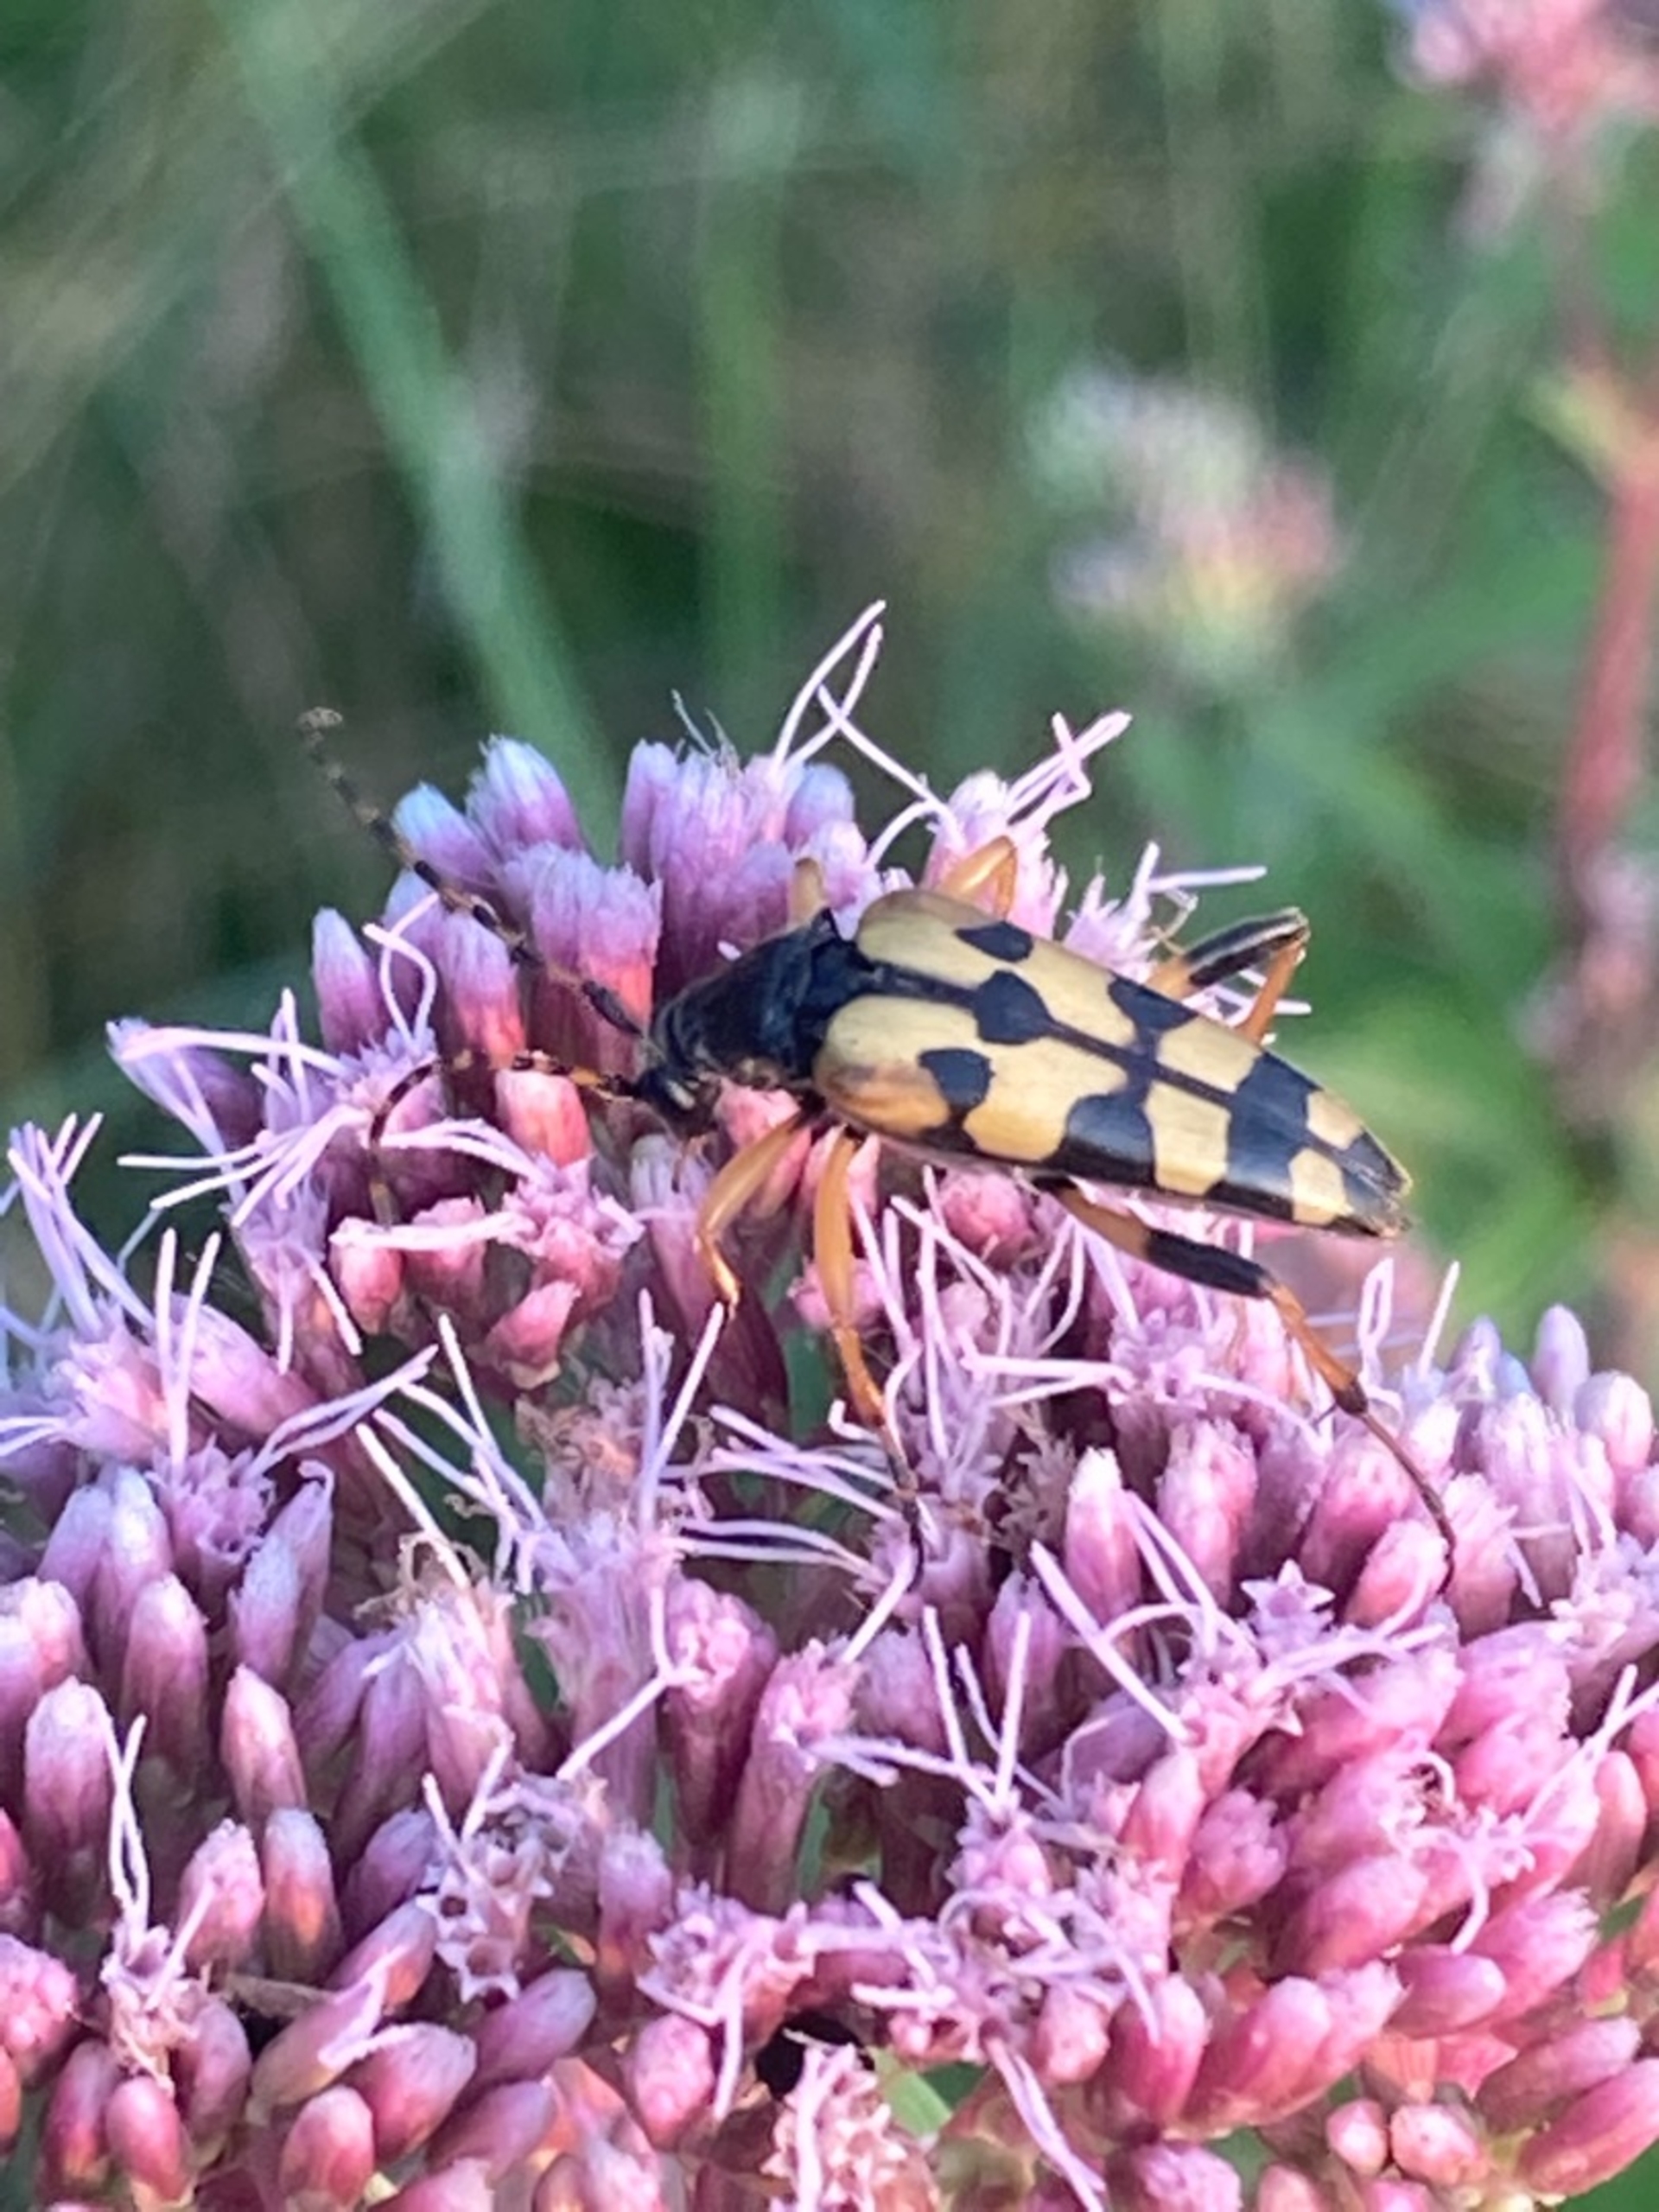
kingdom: Animalia
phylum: Arthropoda
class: Insecta
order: Coleoptera
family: Cerambycidae
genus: Rutpela
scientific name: Rutpela maculata
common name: Sydlig blomsterbuk
